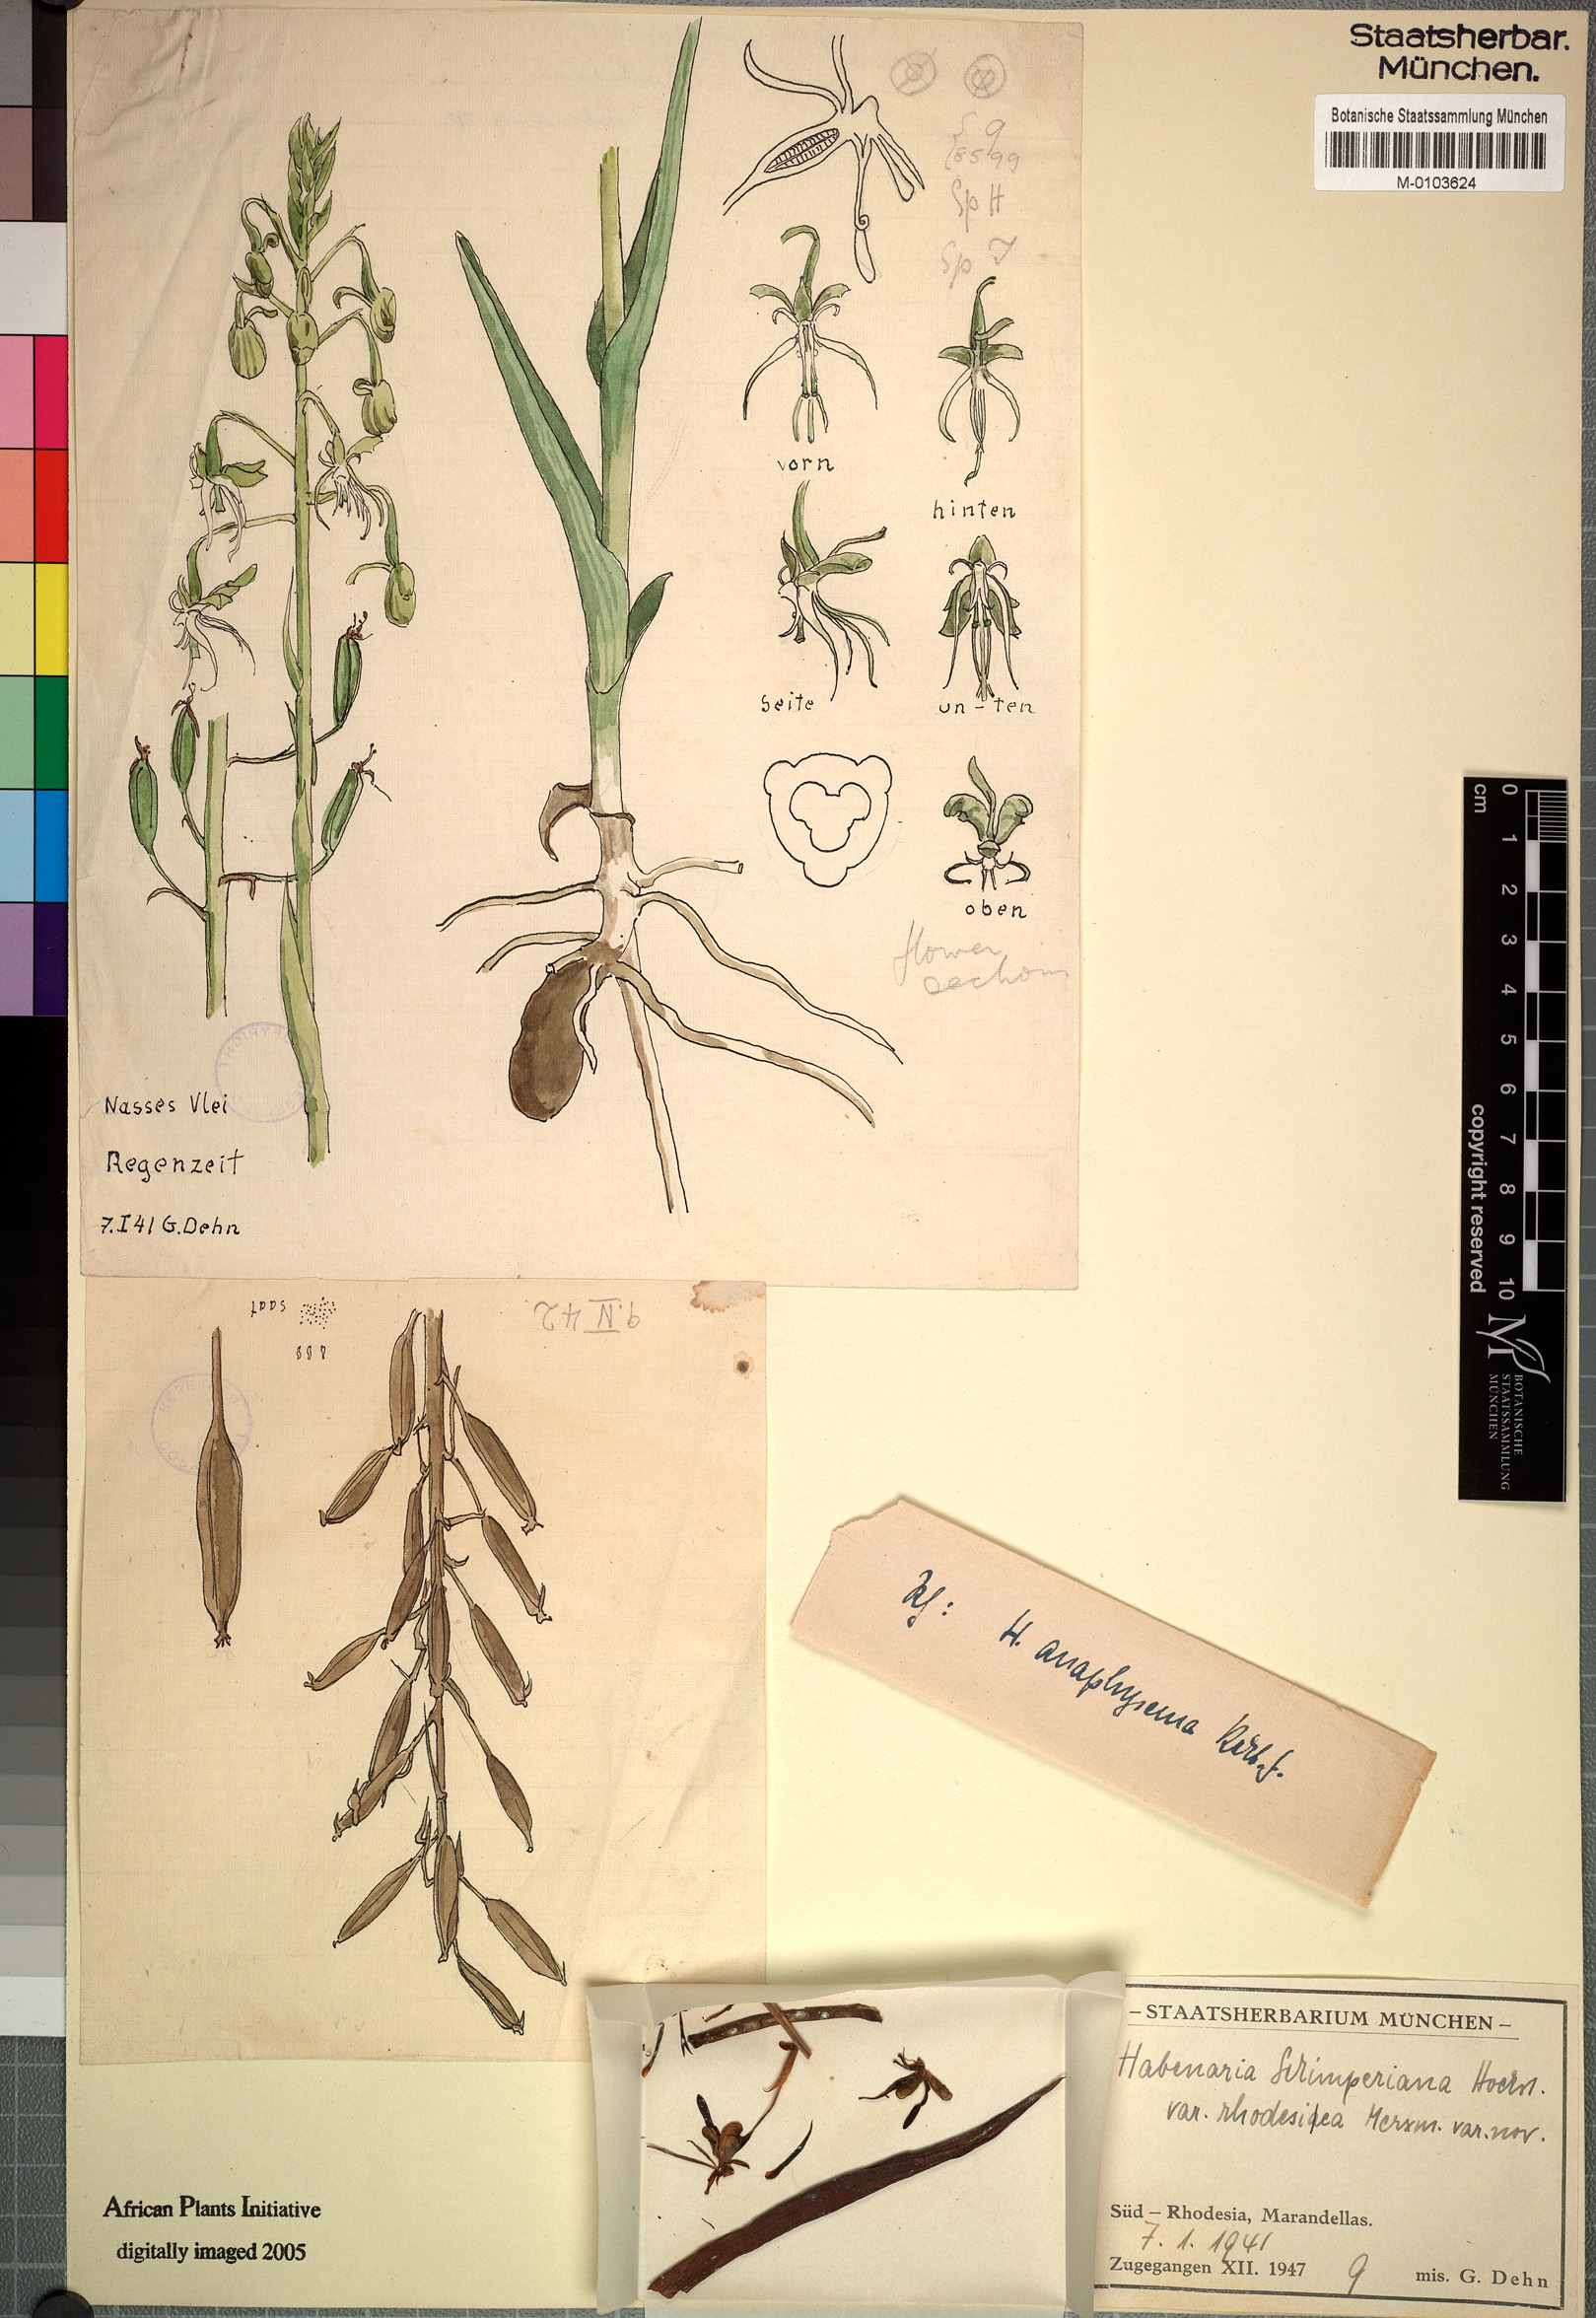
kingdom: Plantae
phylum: Tracheophyta
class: Liliopsida
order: Asparagales
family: Orchidaceae
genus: Habenaria
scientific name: Habenaria schimperiana
